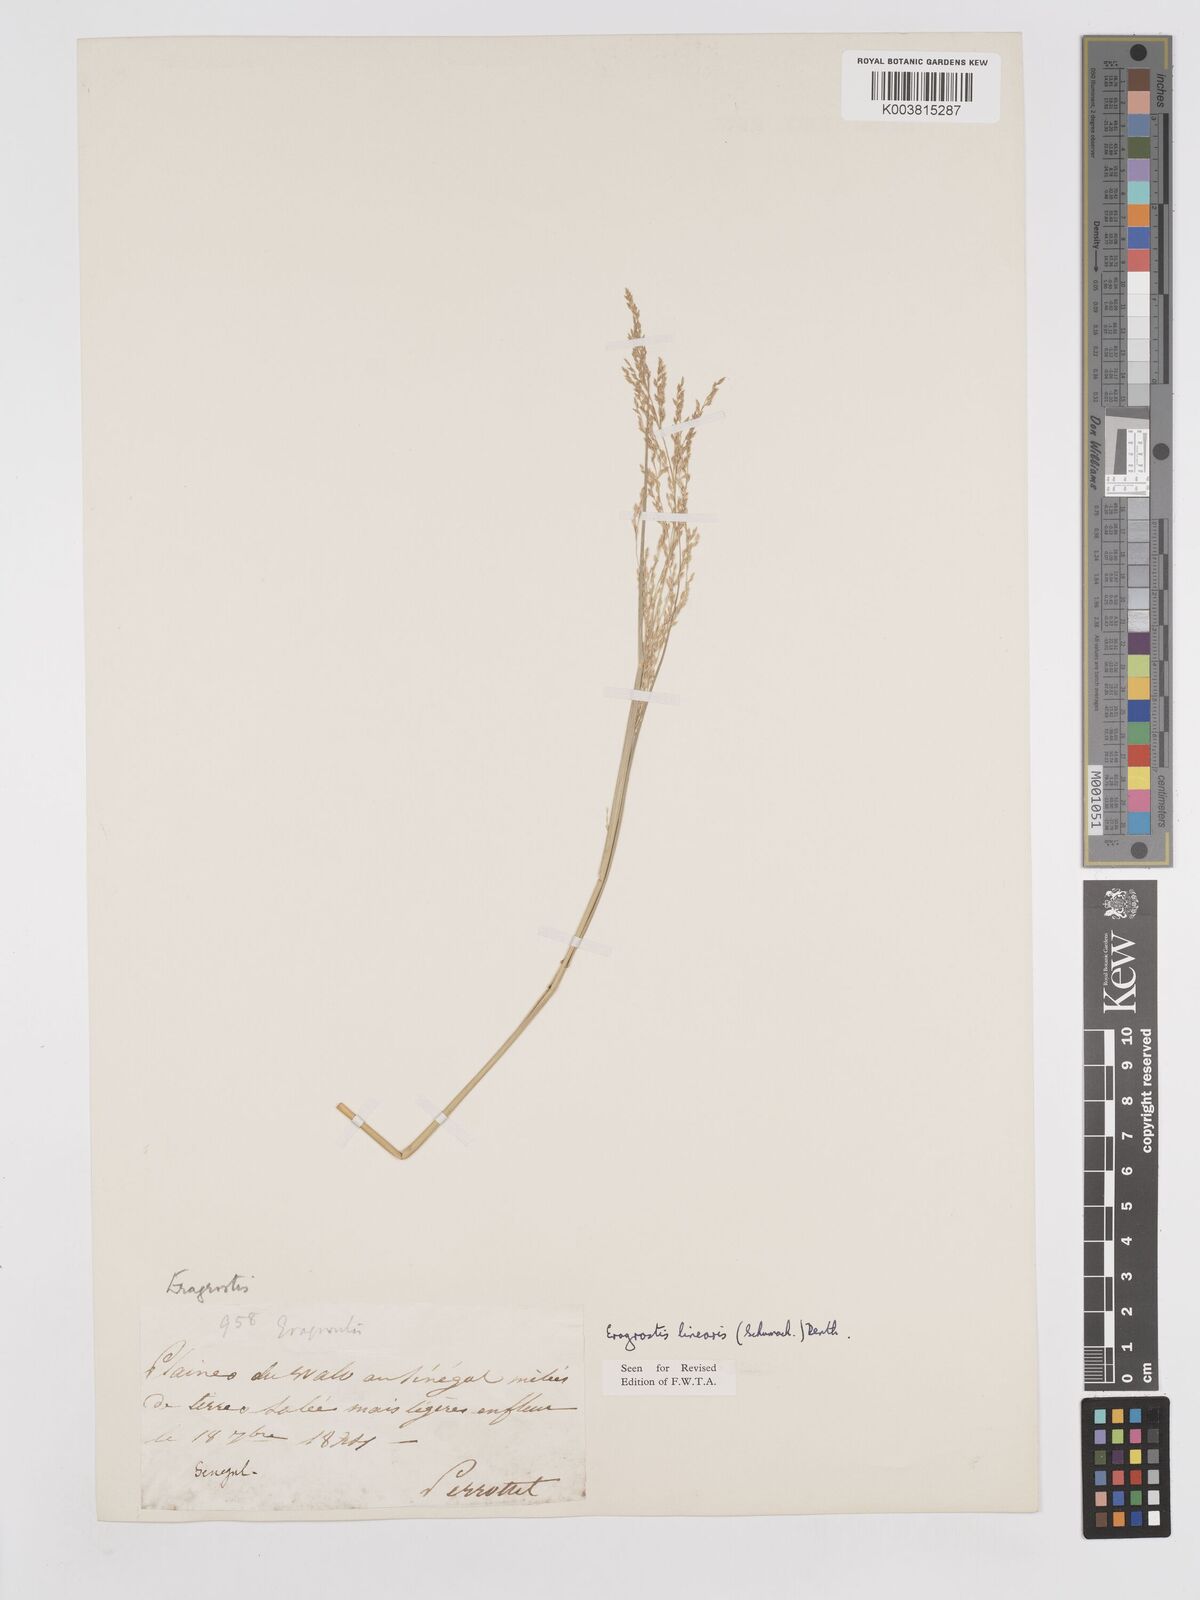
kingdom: Plantae
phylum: Tracheophyta
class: Liliopsida
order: Poales
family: Poaceae
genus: Eragrostis
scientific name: Eragrostis prolifera
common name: Dominican lovegrass
